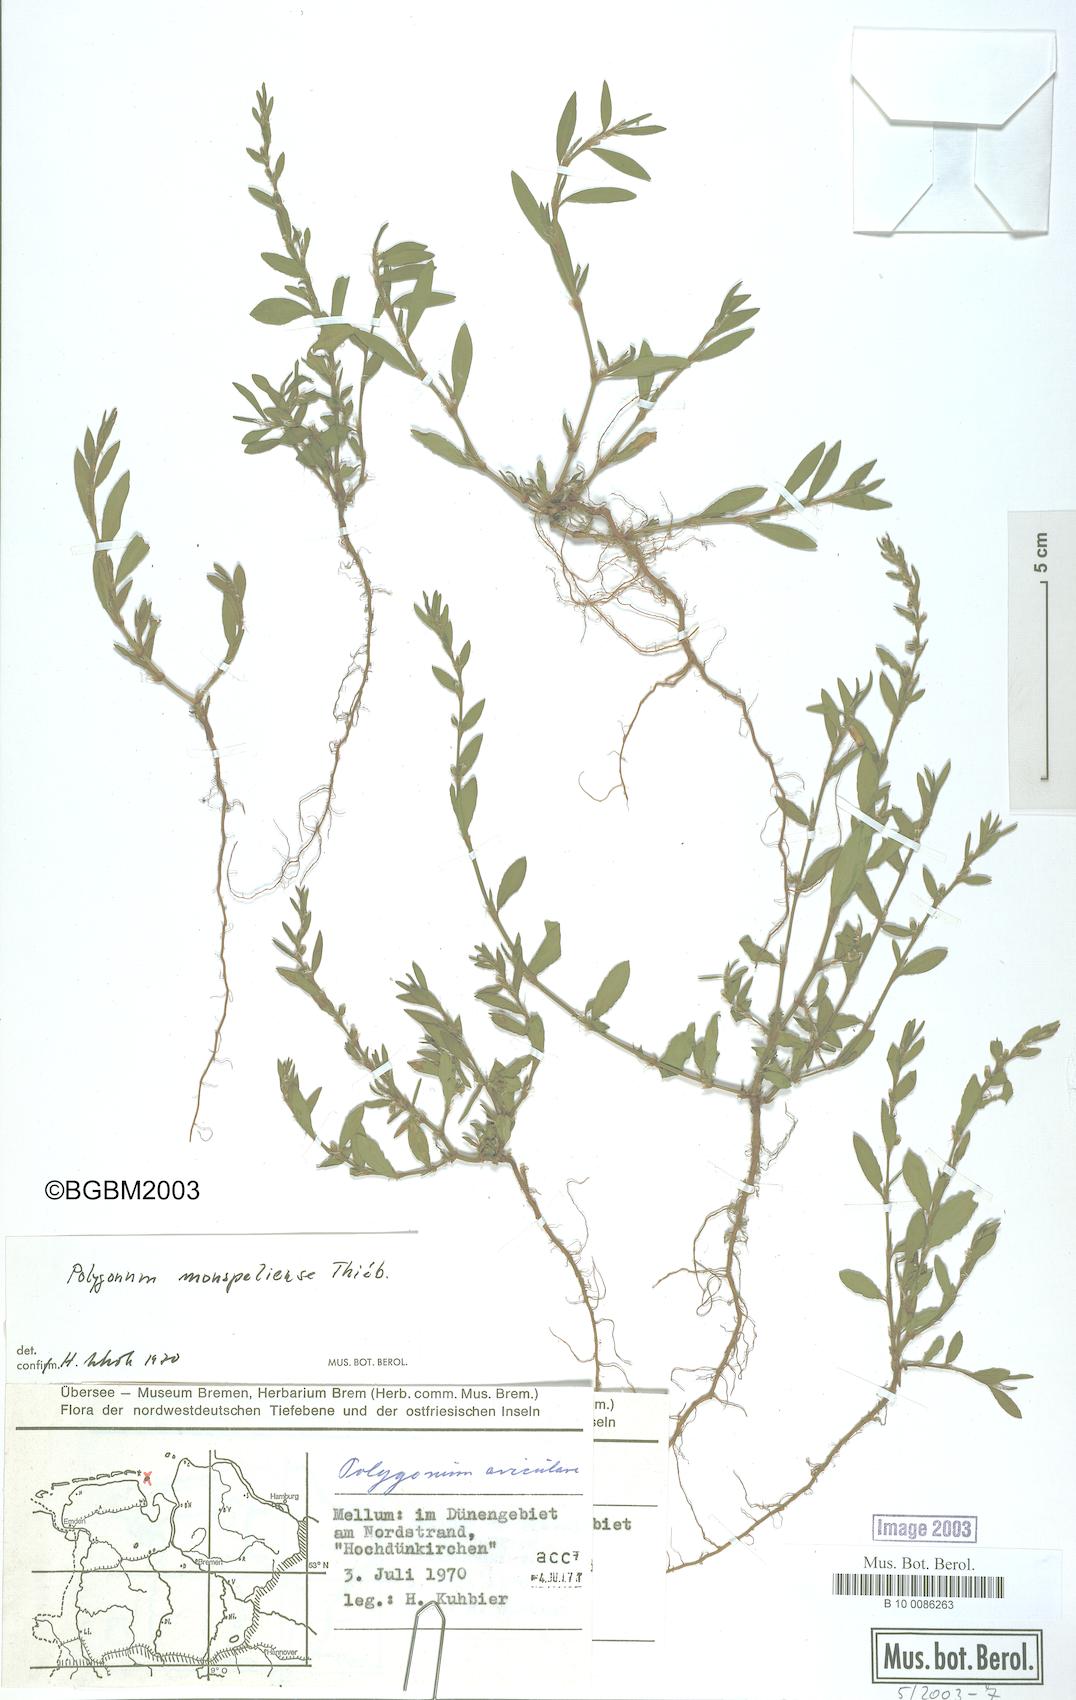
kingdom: Plantae
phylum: Tracheophyta
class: Magnoliopsida
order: Caryophyllales
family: Polygonaceae
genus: Polygonum
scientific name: Polygonum
